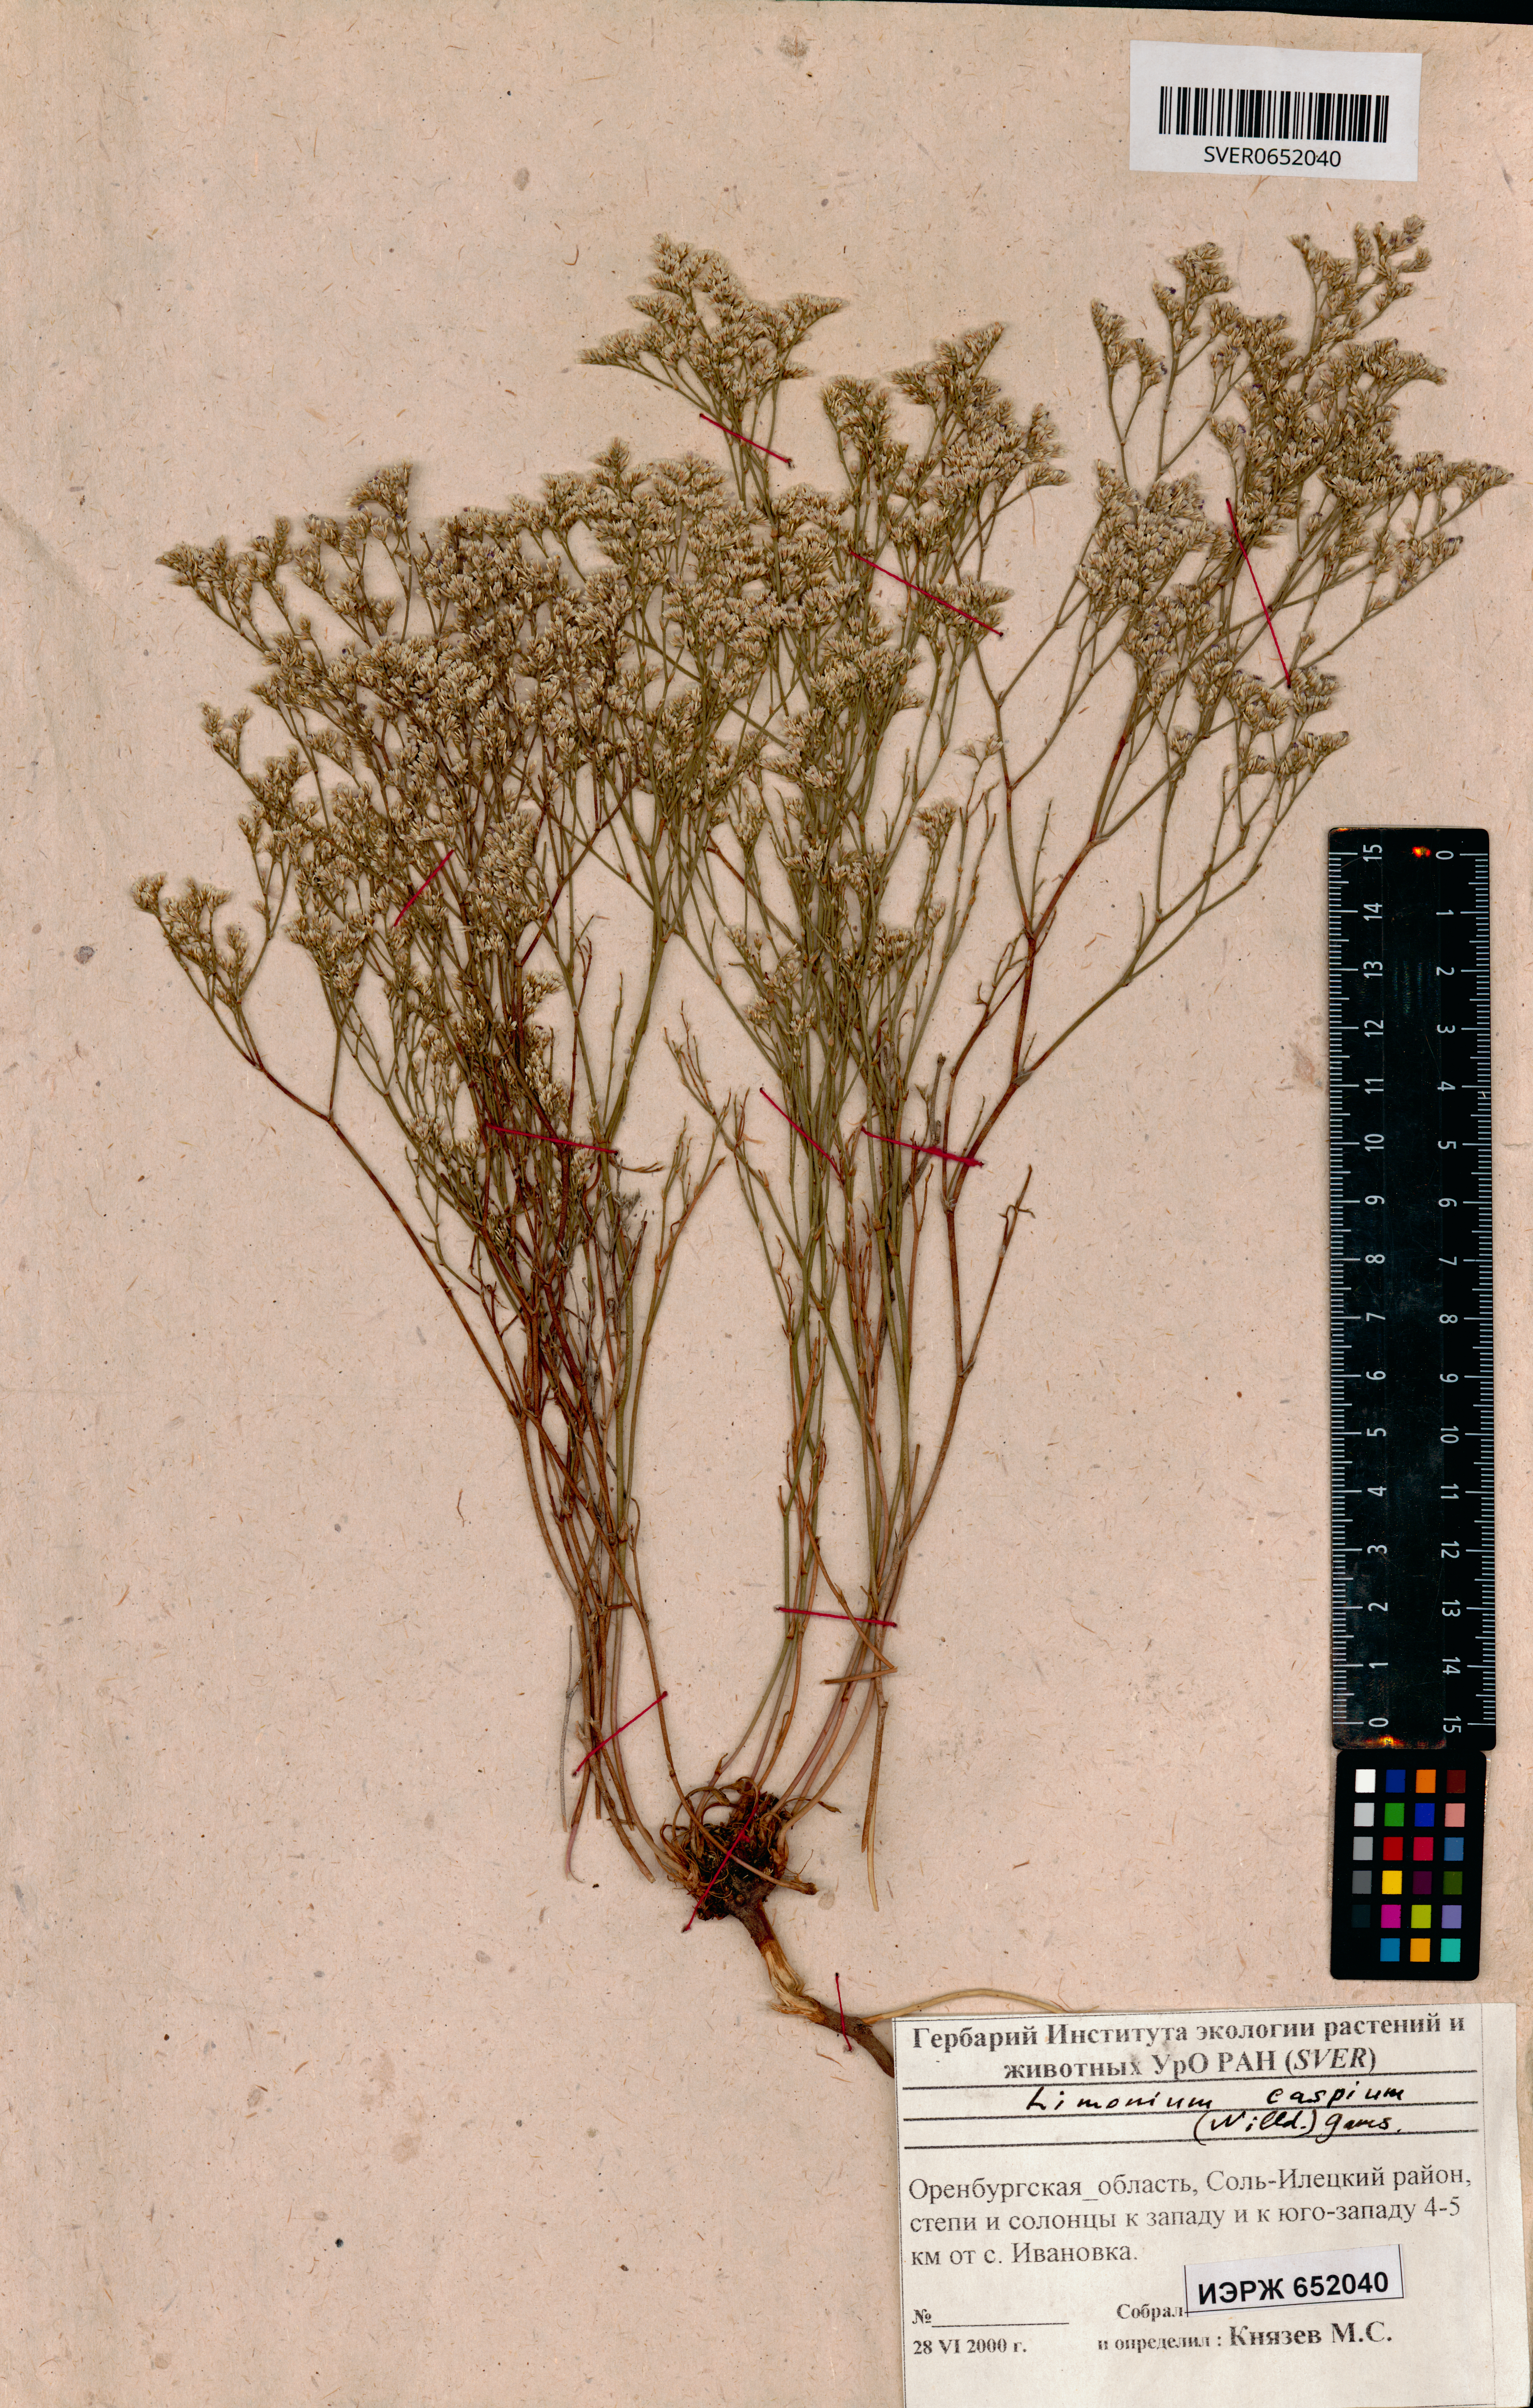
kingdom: Plantae
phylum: Tracheophyta
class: Magnoliopsida
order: Caryophyllales
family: Plumbaginaceae
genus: Limonium
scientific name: Limonium bellidifolium
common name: Matted sea-lavender
